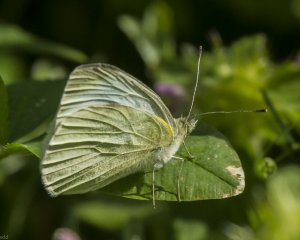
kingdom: Animalia
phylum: Arthropoda
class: Insecta
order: Lepidoptera
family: Pieridae
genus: Pieris
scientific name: Pieris rapae
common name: Cabbage White
